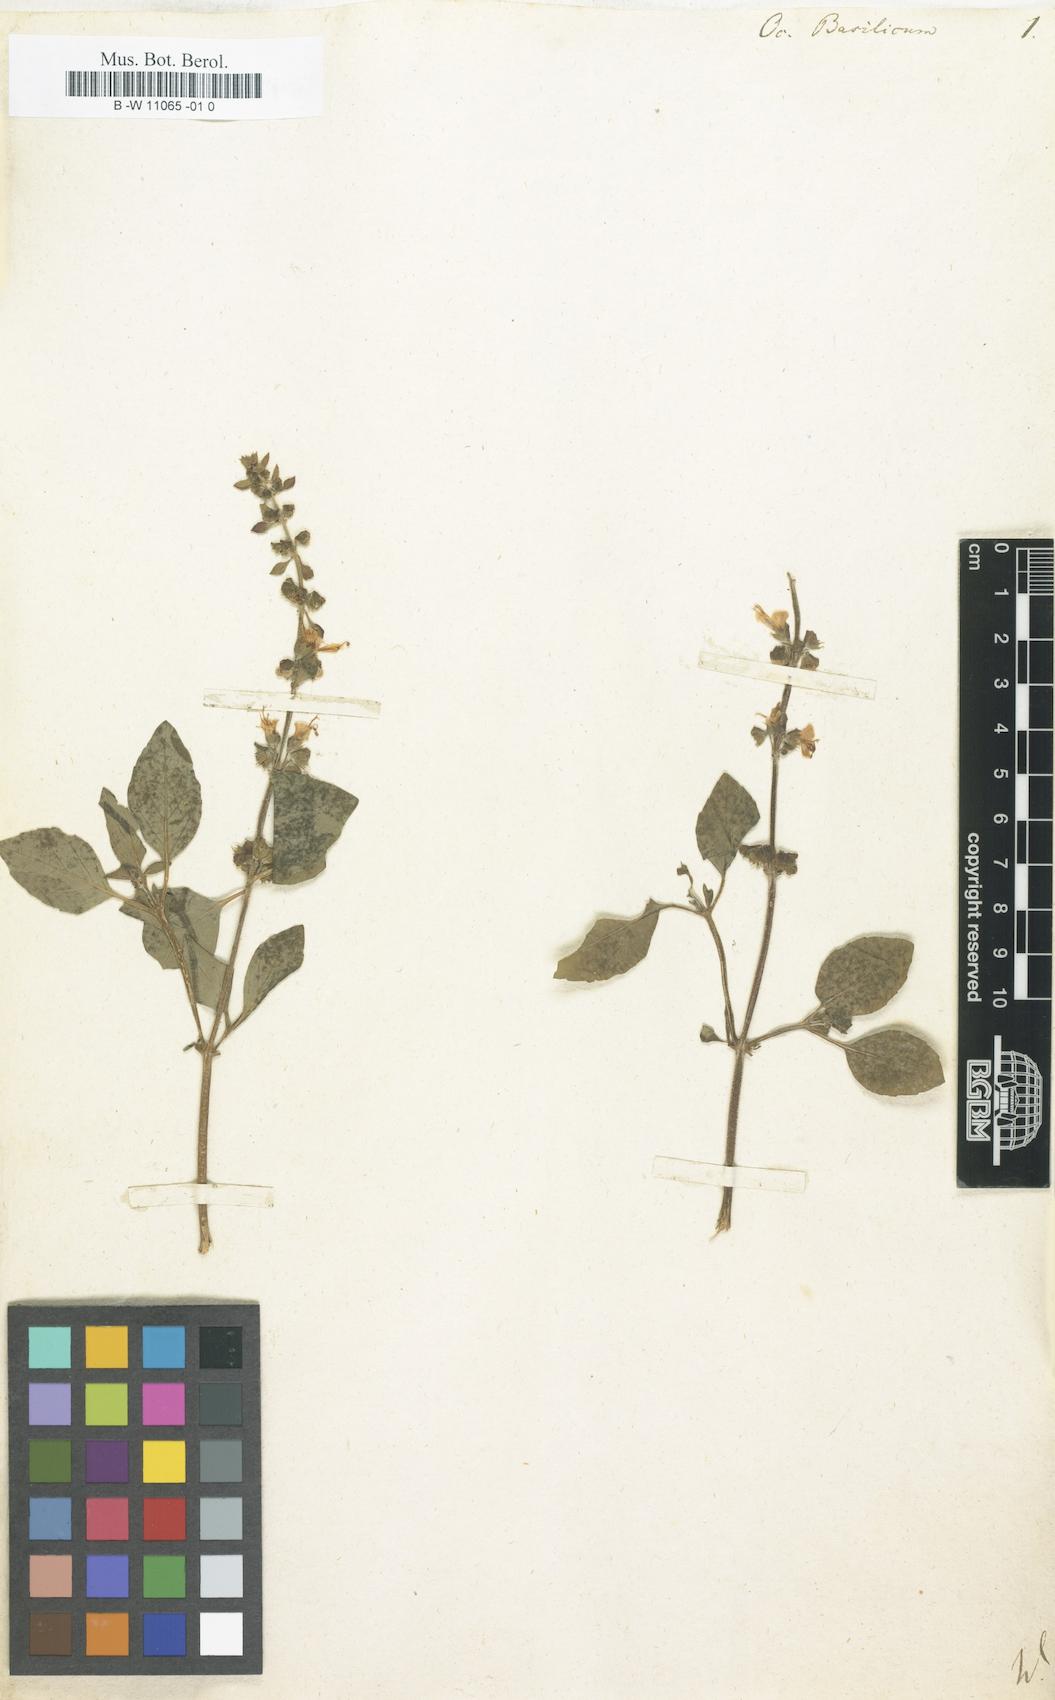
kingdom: Plantae
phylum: Tracheophyta
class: Magnoliopsida
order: Lamiales
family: Lamiaceae
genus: Ocimum
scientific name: Ocimum basilicum
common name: Sweet basil
